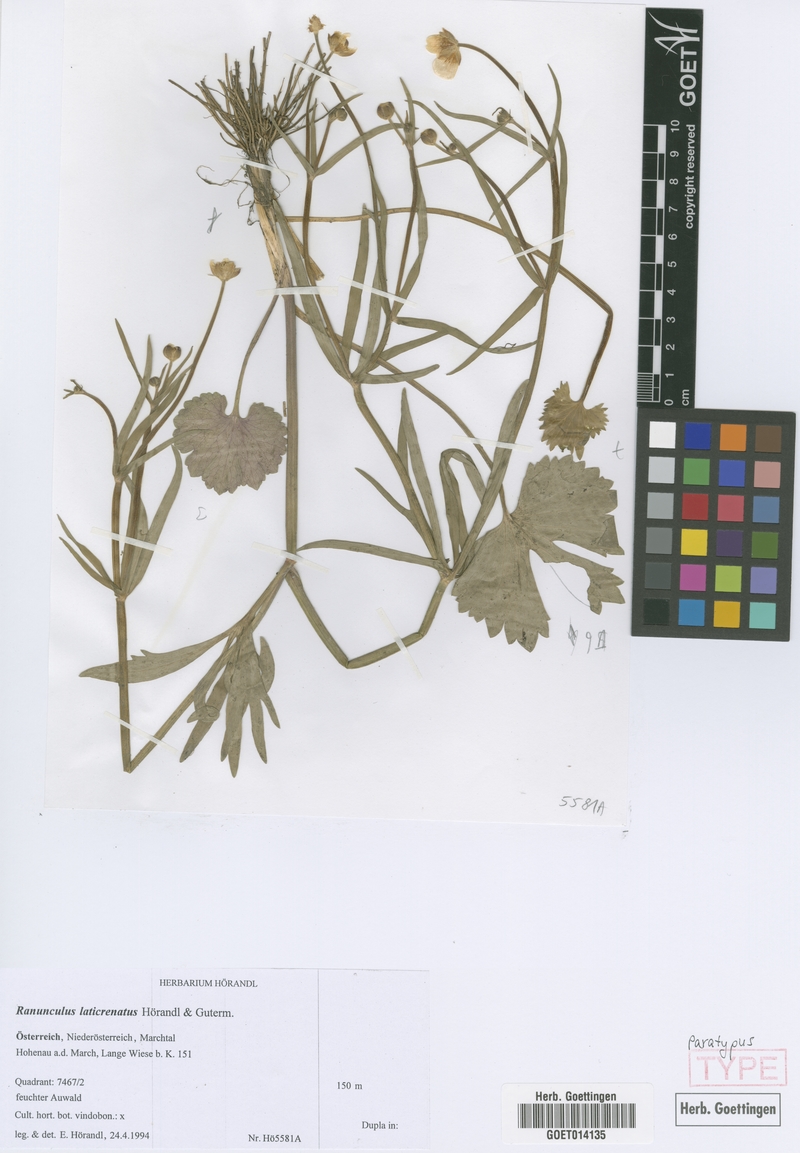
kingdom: Plantae
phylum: Tracheophyta
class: Magnoliopsida
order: Ranunculales
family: Ranunculaceae
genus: Ranunculus
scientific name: Ranunculus laticrenatus
